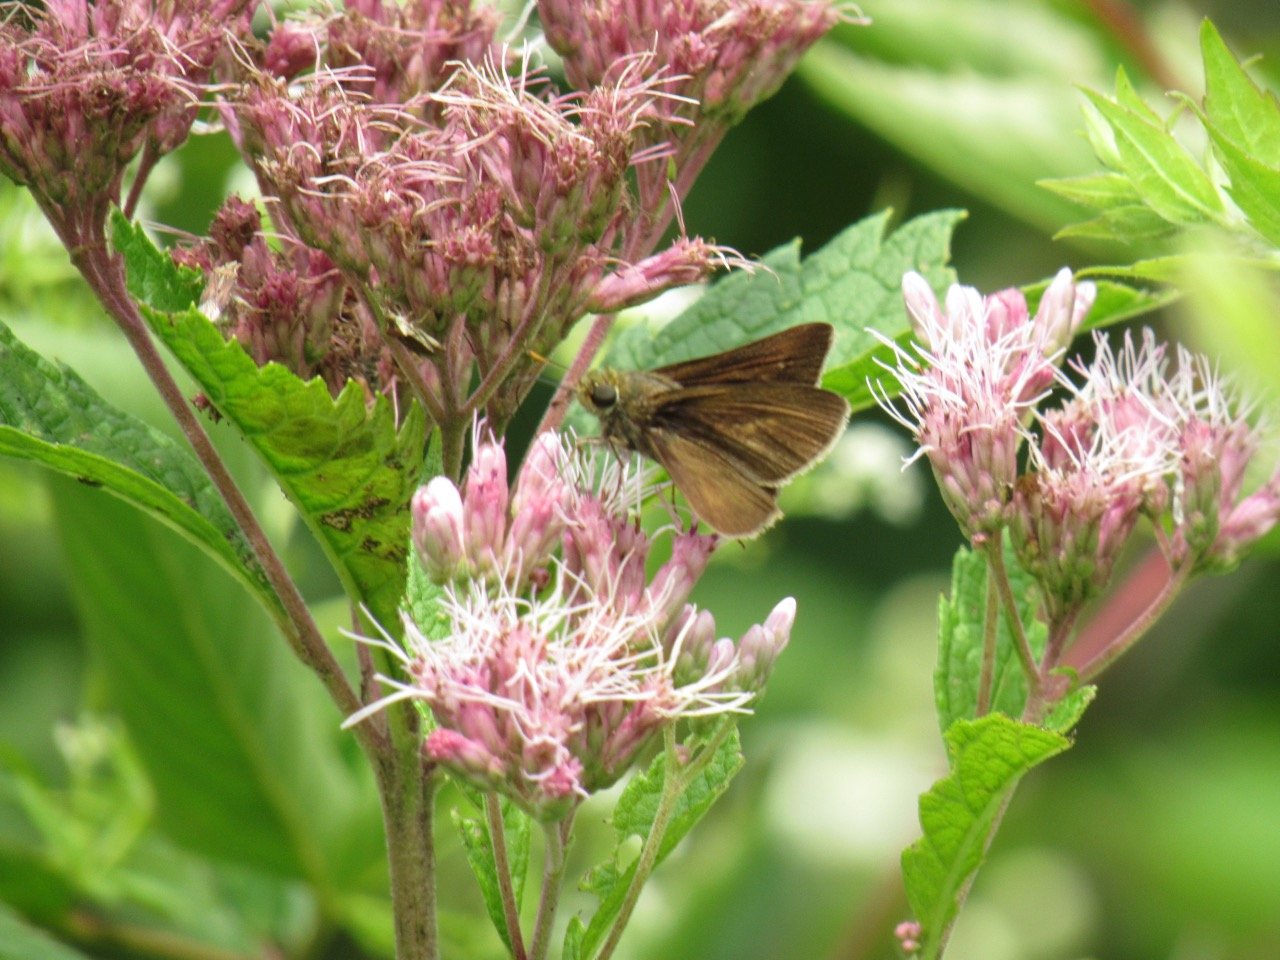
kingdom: Animalia
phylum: Arthropoda
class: Insecta
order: Lepidoptera
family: Hesperiidae
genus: Euphyes
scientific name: Euphyes vestris
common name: Dun Skipper
